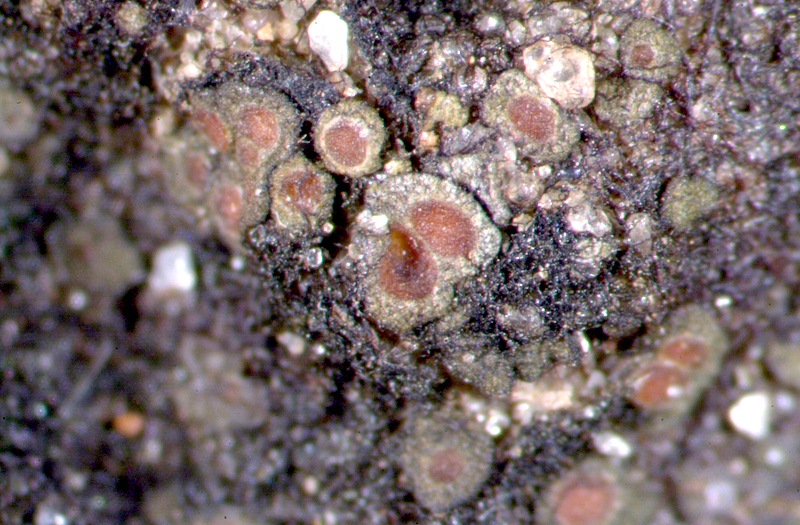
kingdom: Fungi
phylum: Ascomycota
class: Lichinomycetes
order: Lichinales
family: Peltulaceae
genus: Peltula
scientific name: Peltula patellata
